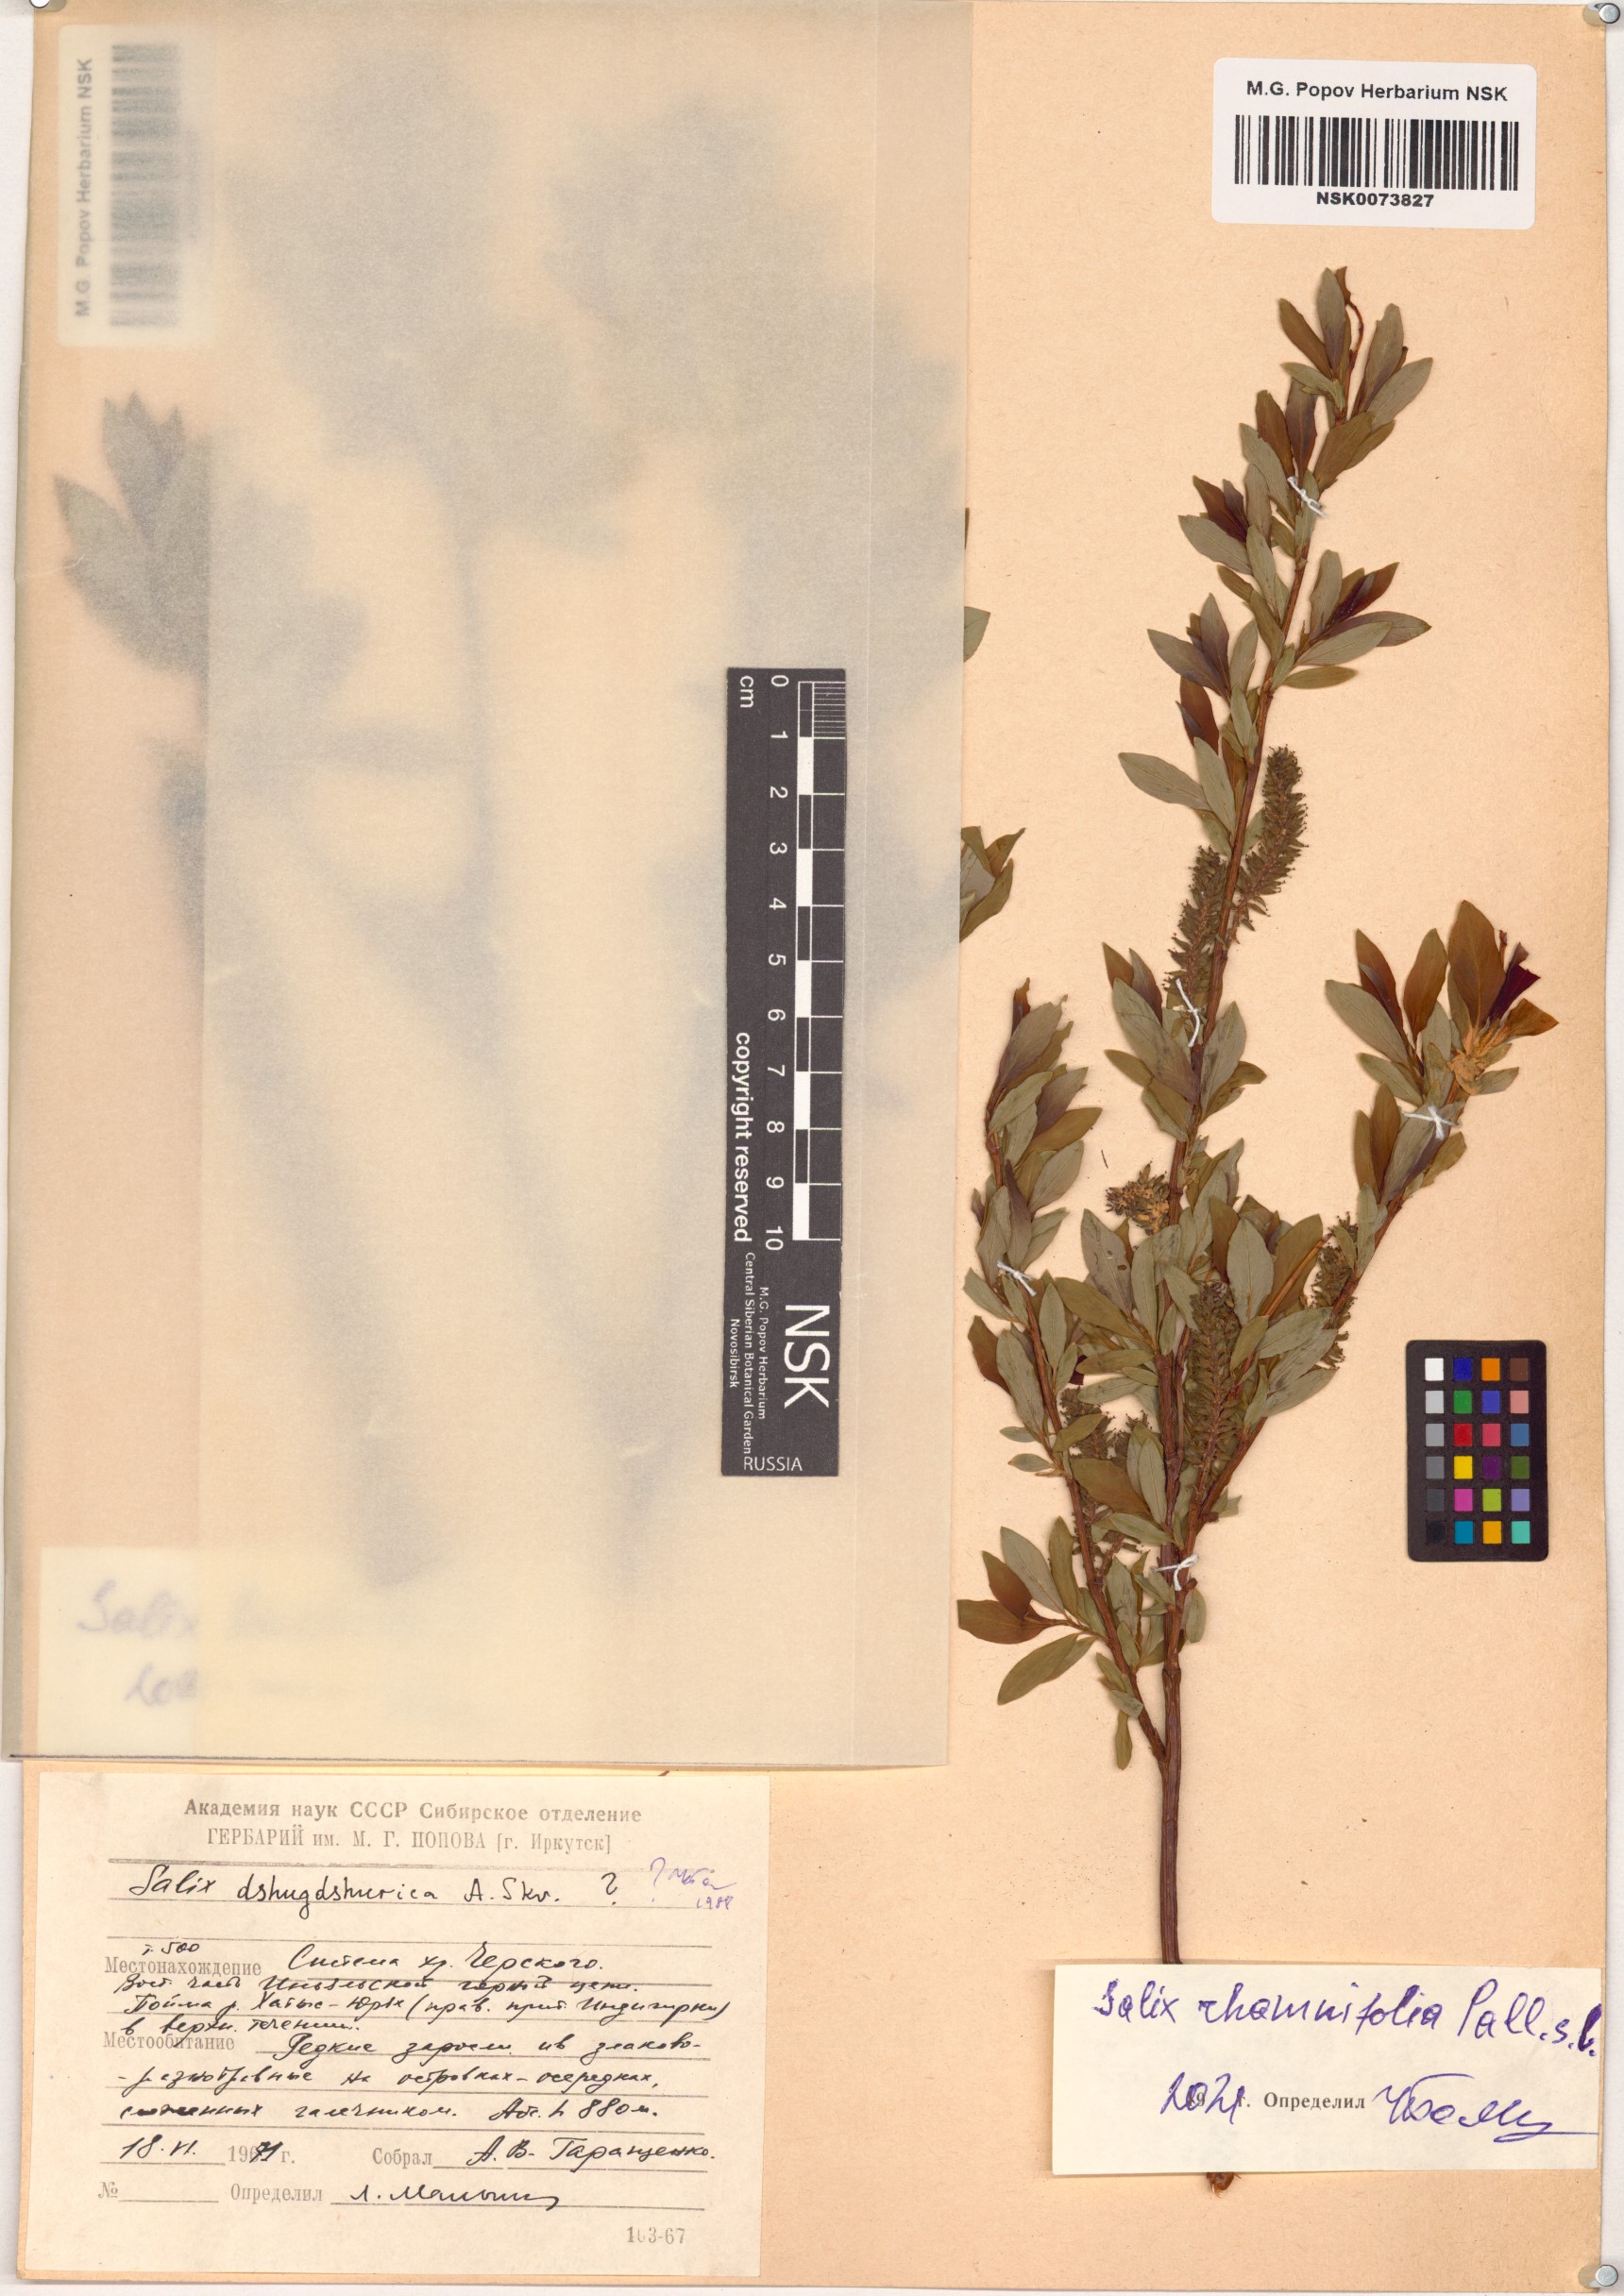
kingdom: Plantae
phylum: Tracheophyta
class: Magnoliopsida
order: Malpighiales
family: Salicaceae
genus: Salix
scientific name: Salix rhamnifolia
